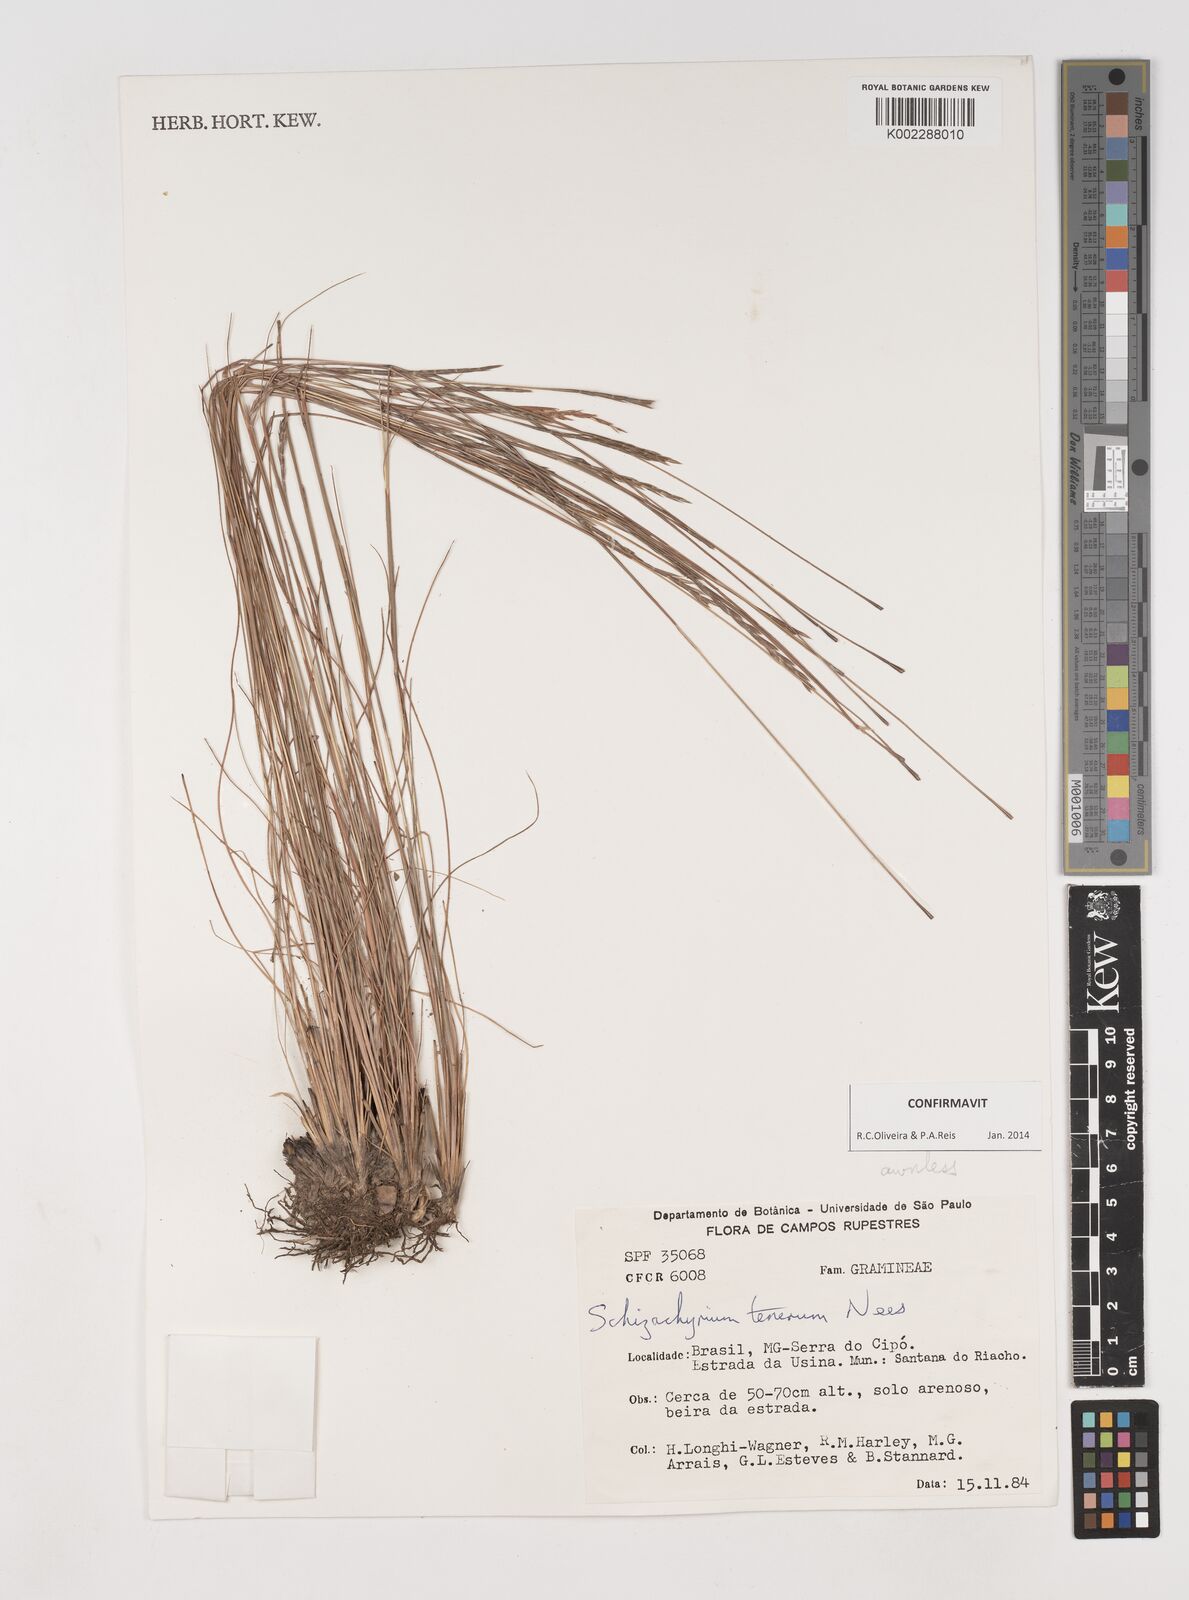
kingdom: Plantae
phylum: Tracheophyta
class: Liliopsida
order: Poales
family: Poaceae
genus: Andropogon
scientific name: Andropogon tener
